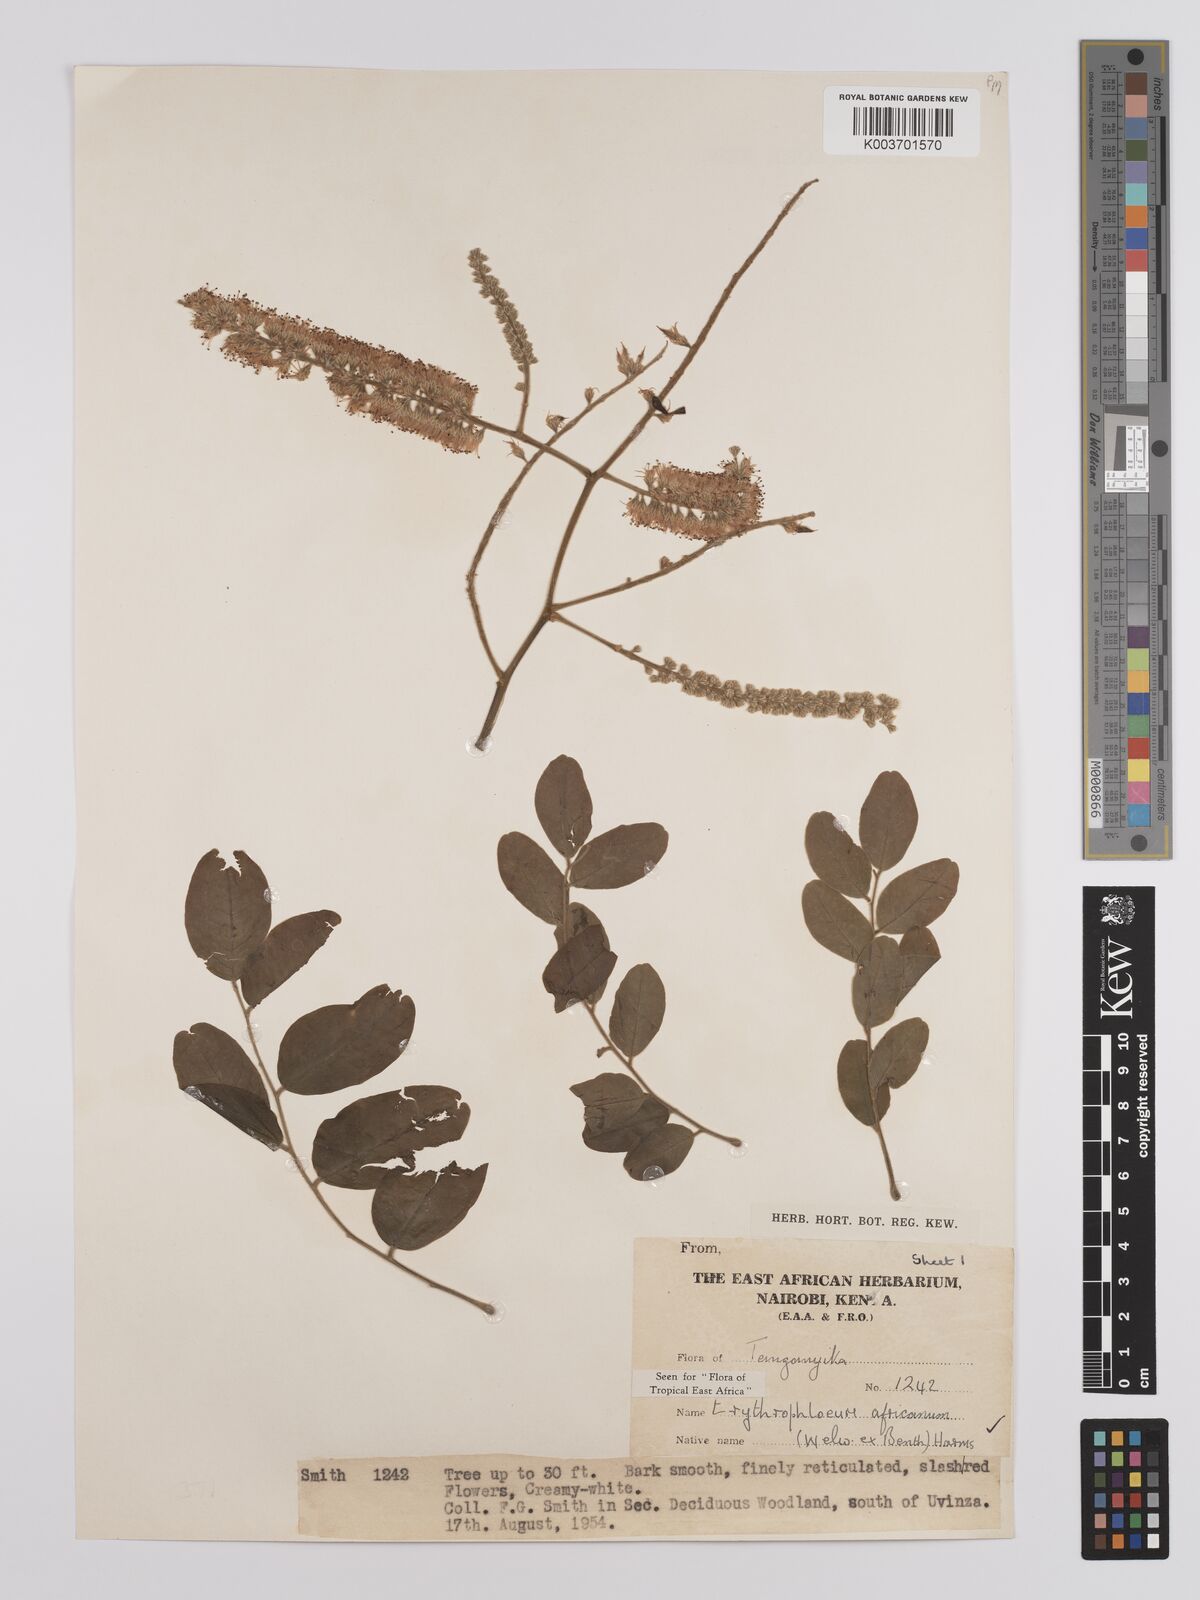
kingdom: Plantae
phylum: Tracheophyta
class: Magnoliopsida
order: Fabales
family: Fabaceae
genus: Erythrophleum
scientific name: Erythrophleum africanum
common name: African blackwood
